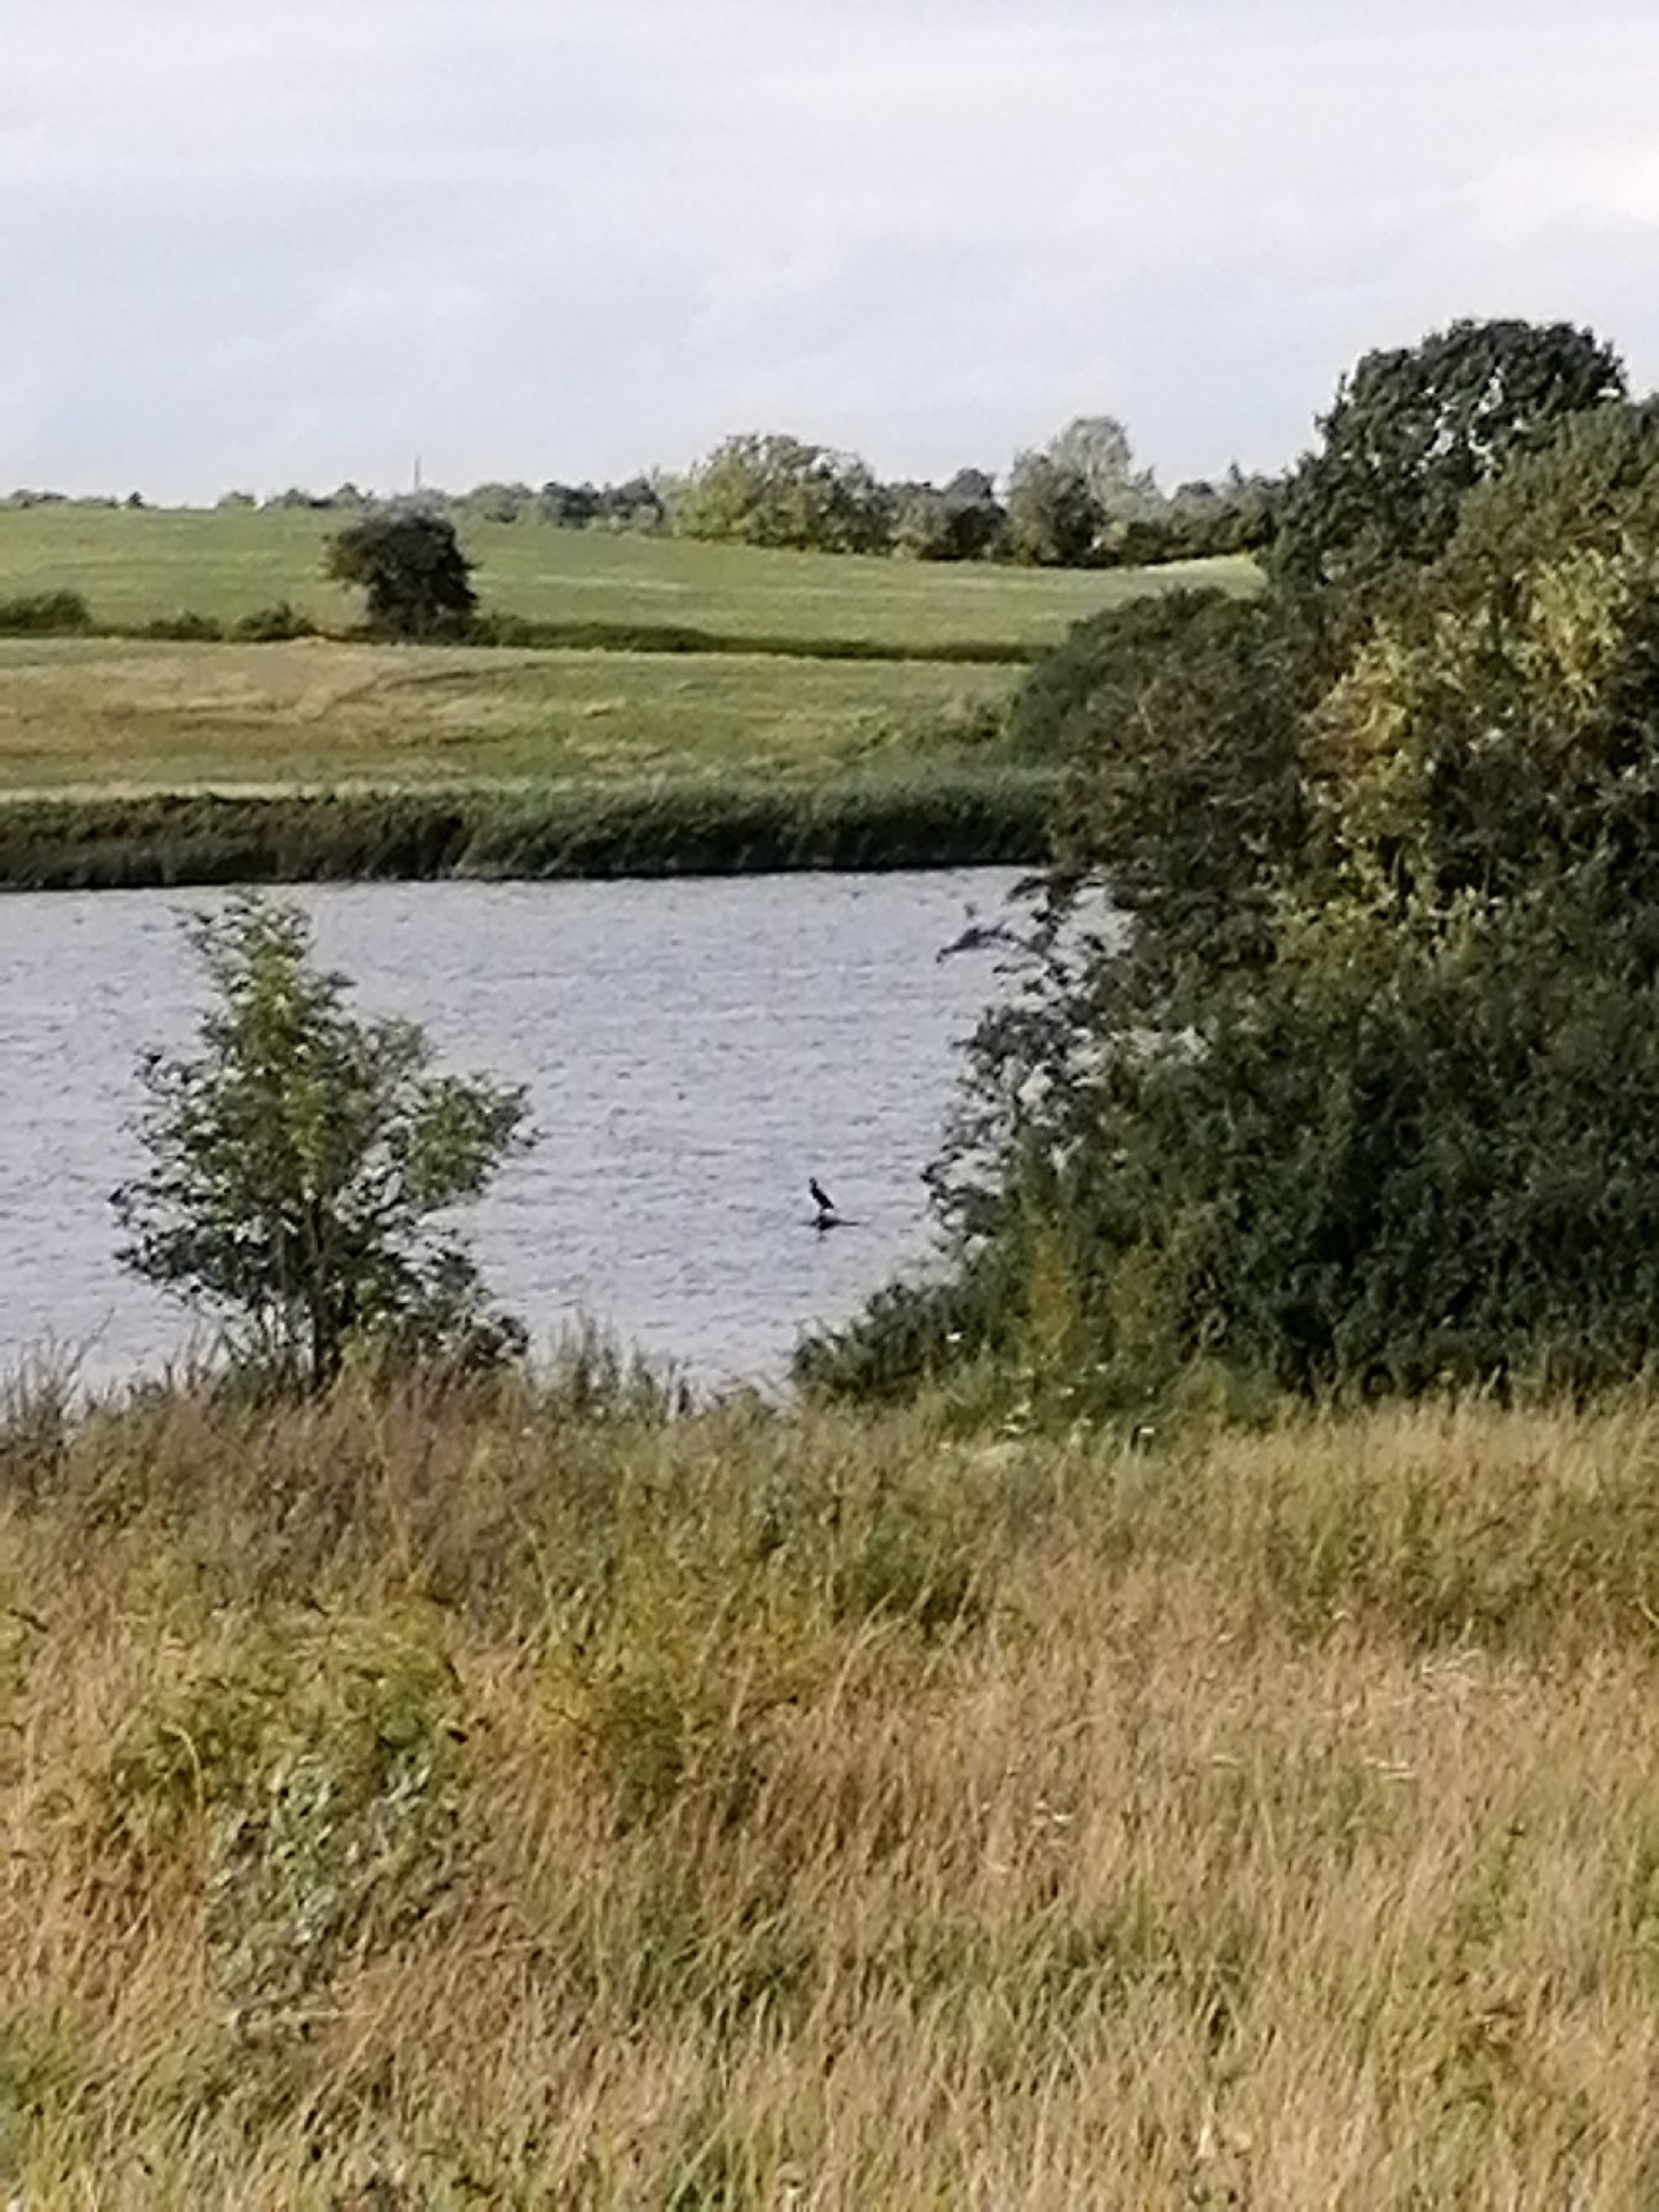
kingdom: Animalia
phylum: Chordata
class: Aves
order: Suliformes
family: Phalacrocoracidae
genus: Phalacrocorax
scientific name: Phalacrocorax carbo
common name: Skarv
